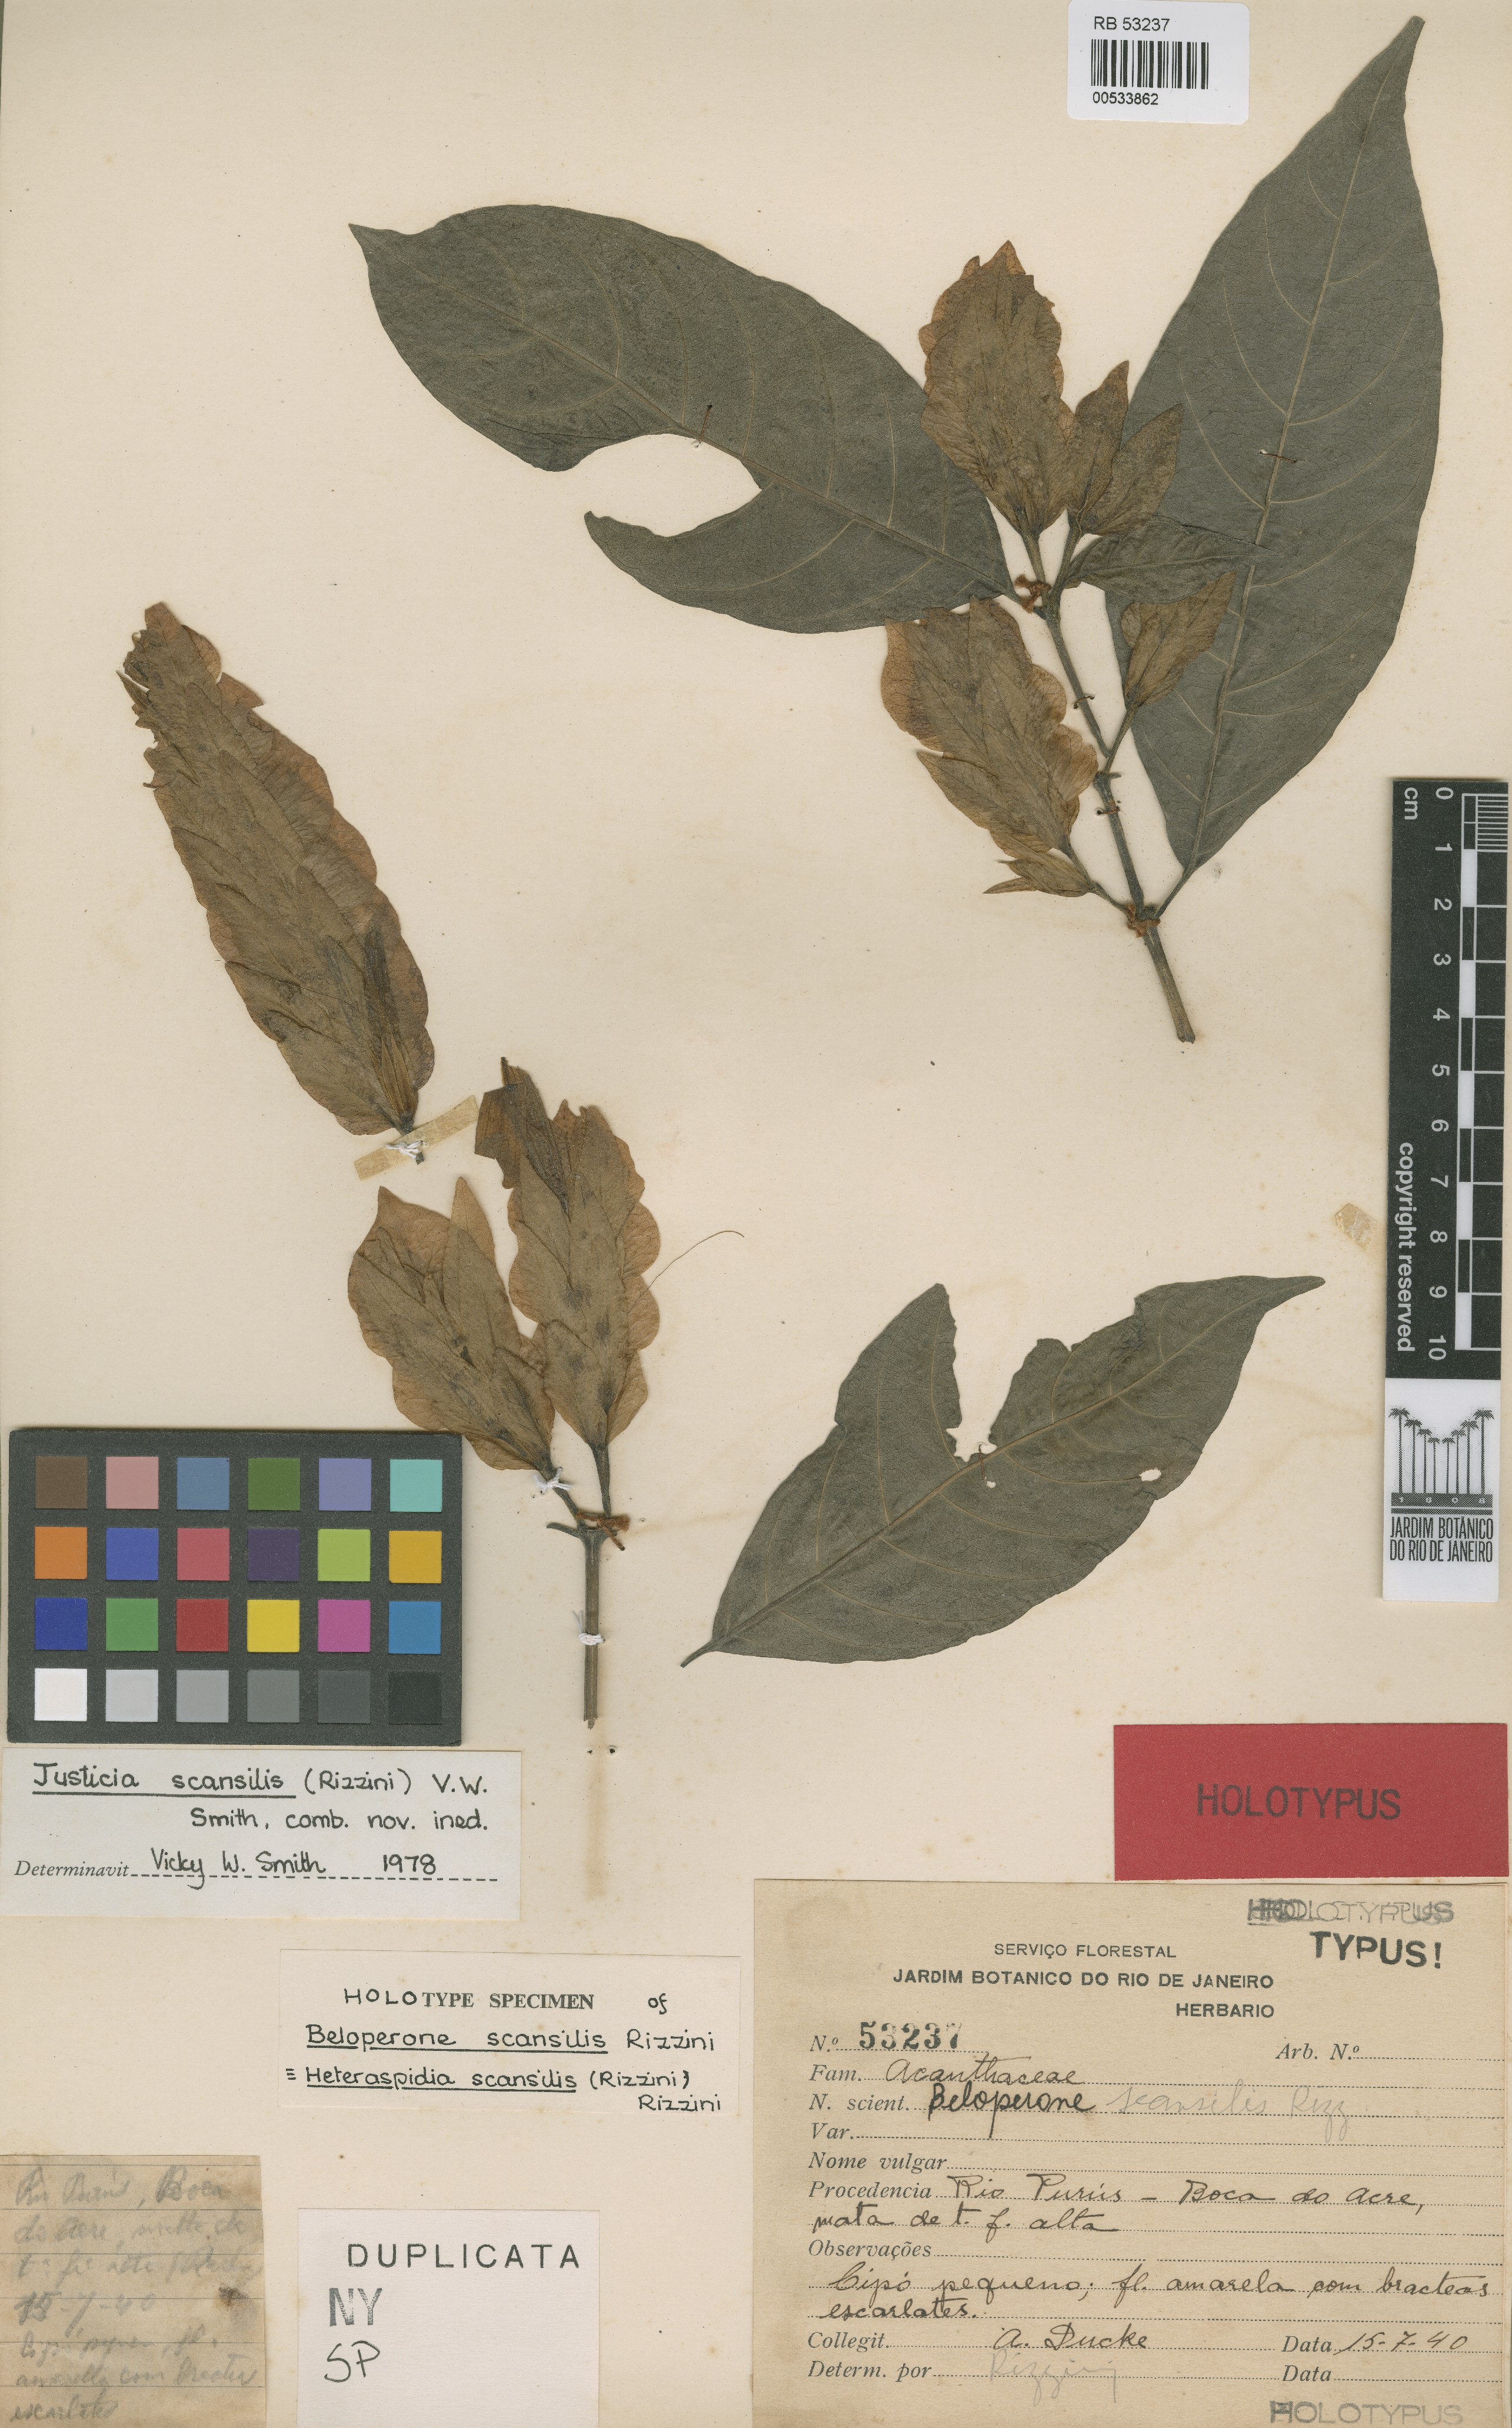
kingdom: Plantae
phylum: Tracheophyta
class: Magnoliopsida
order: Lamiales
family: Acanthaceae
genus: Justicia
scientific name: Justicia scansilis
